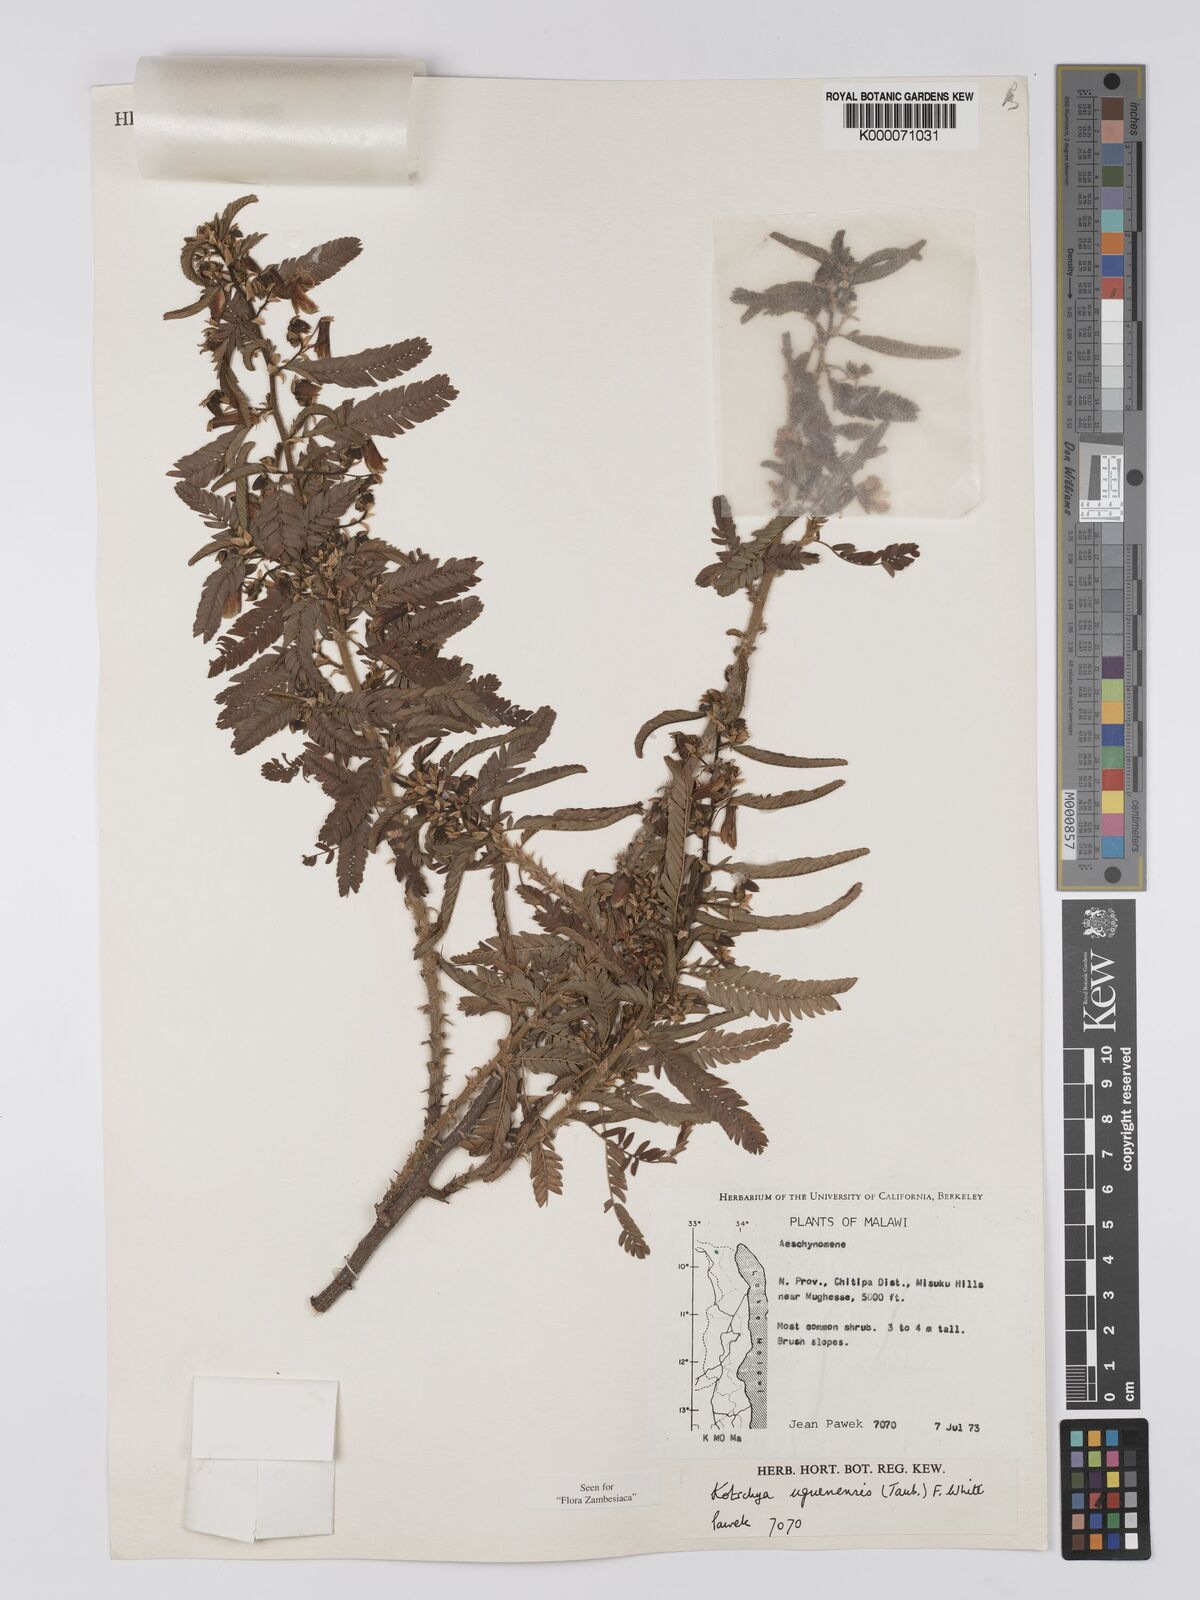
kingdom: Plantae
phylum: Tracheophyta
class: Magnoliopsida
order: Fabales
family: Fabaceae
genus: Kotschya
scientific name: Kotschya uguenensis
